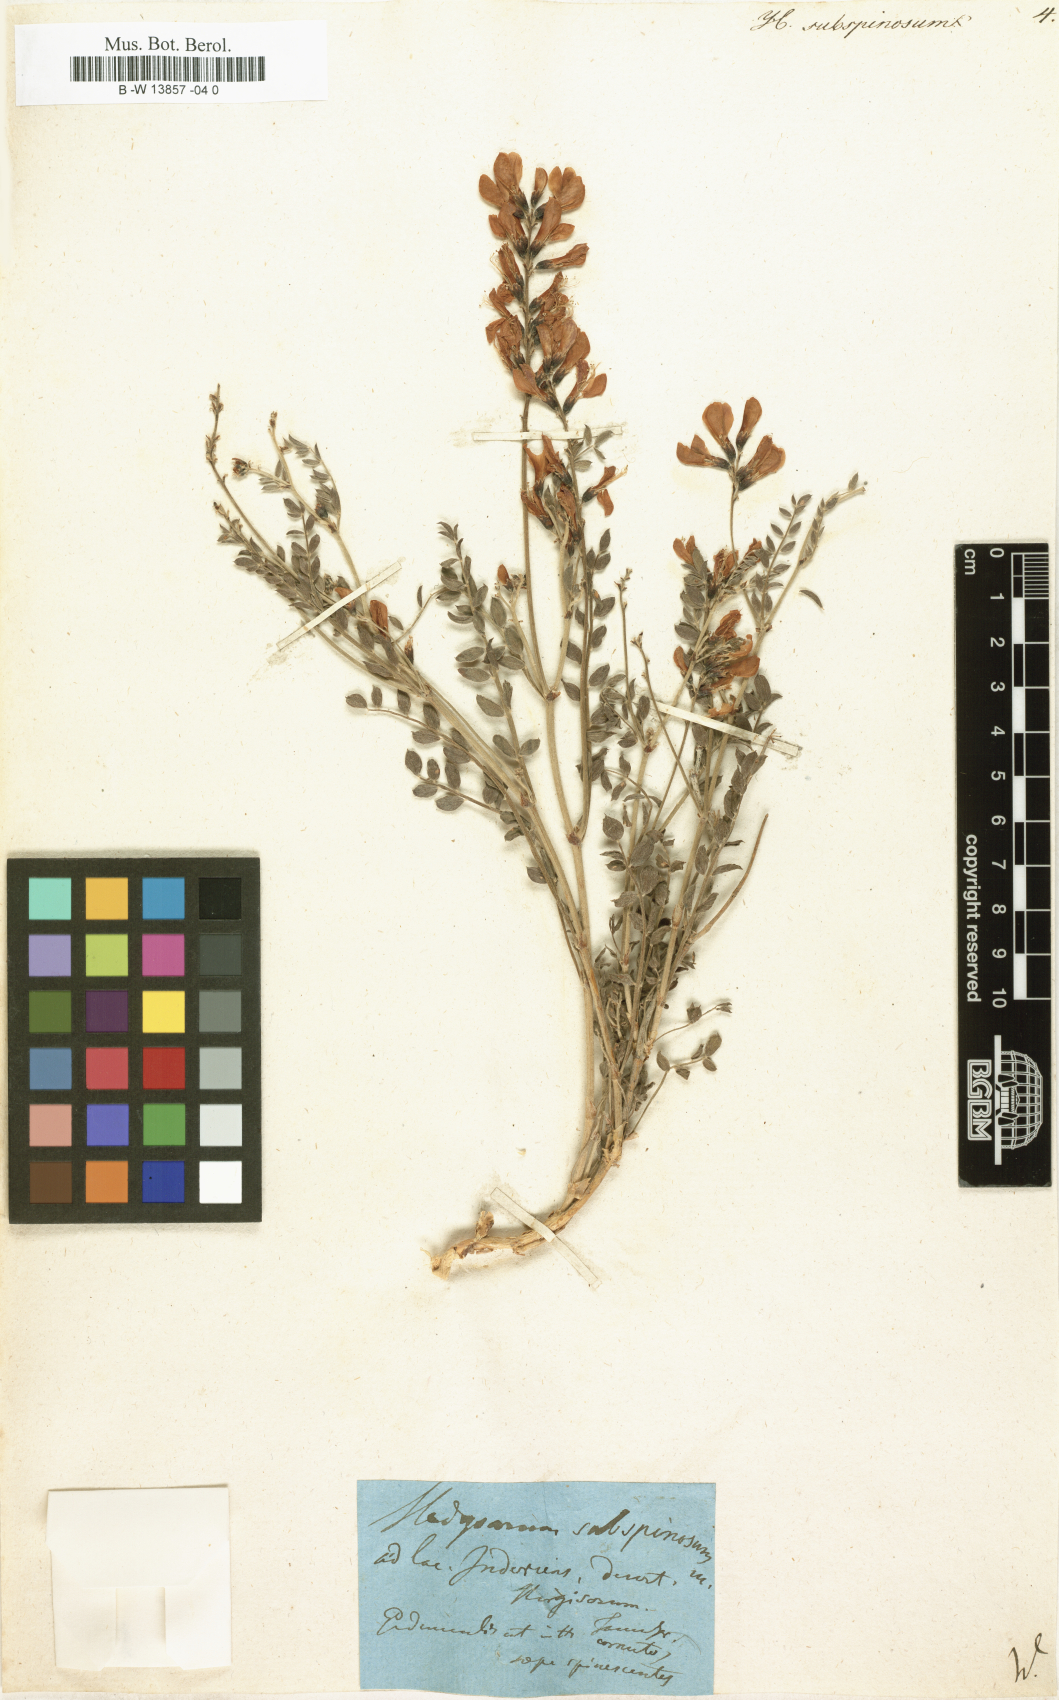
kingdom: Plantae
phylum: Tracheophyta
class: Magnoliopsida
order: Fabales
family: Fabaceae
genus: Eversmannia
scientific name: Eversmannia subspinosa
